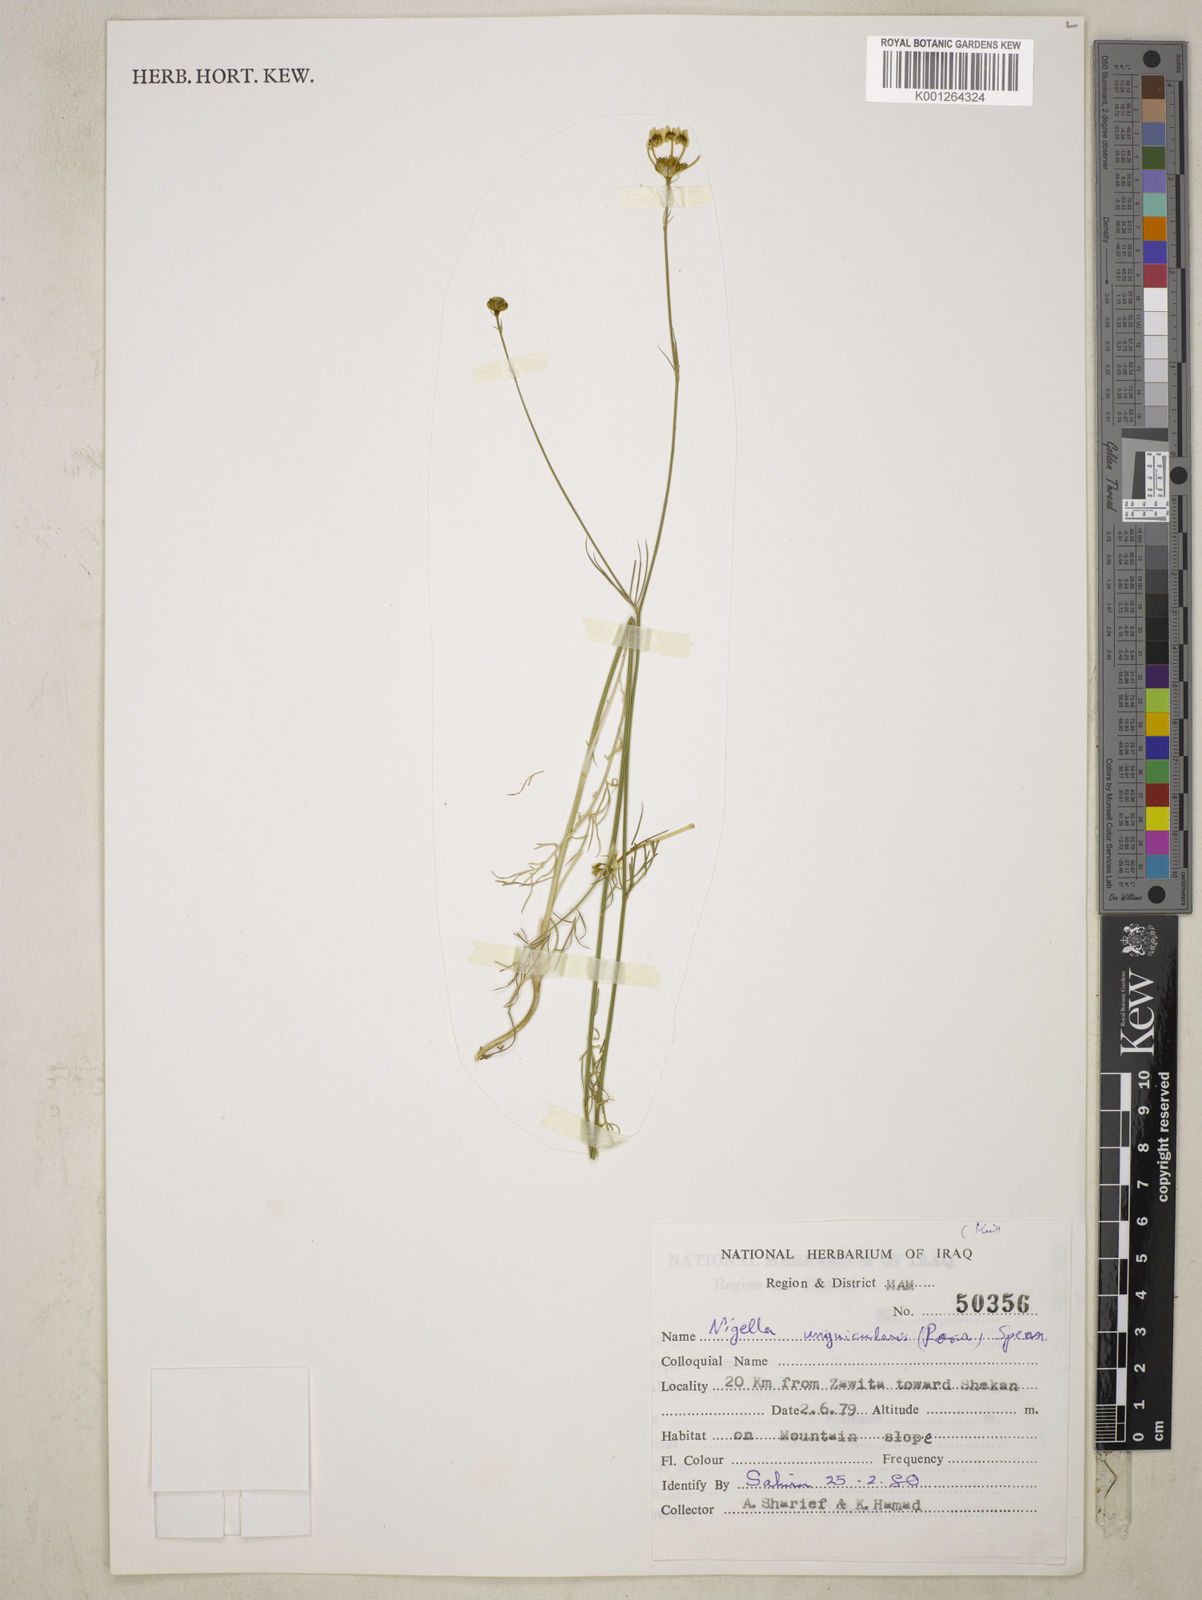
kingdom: Plantae
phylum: Tracheophyta
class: Magnoliopsida
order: Ranunculales
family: Ranunculaceae
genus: Garidella
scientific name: Garidella unguicularis
